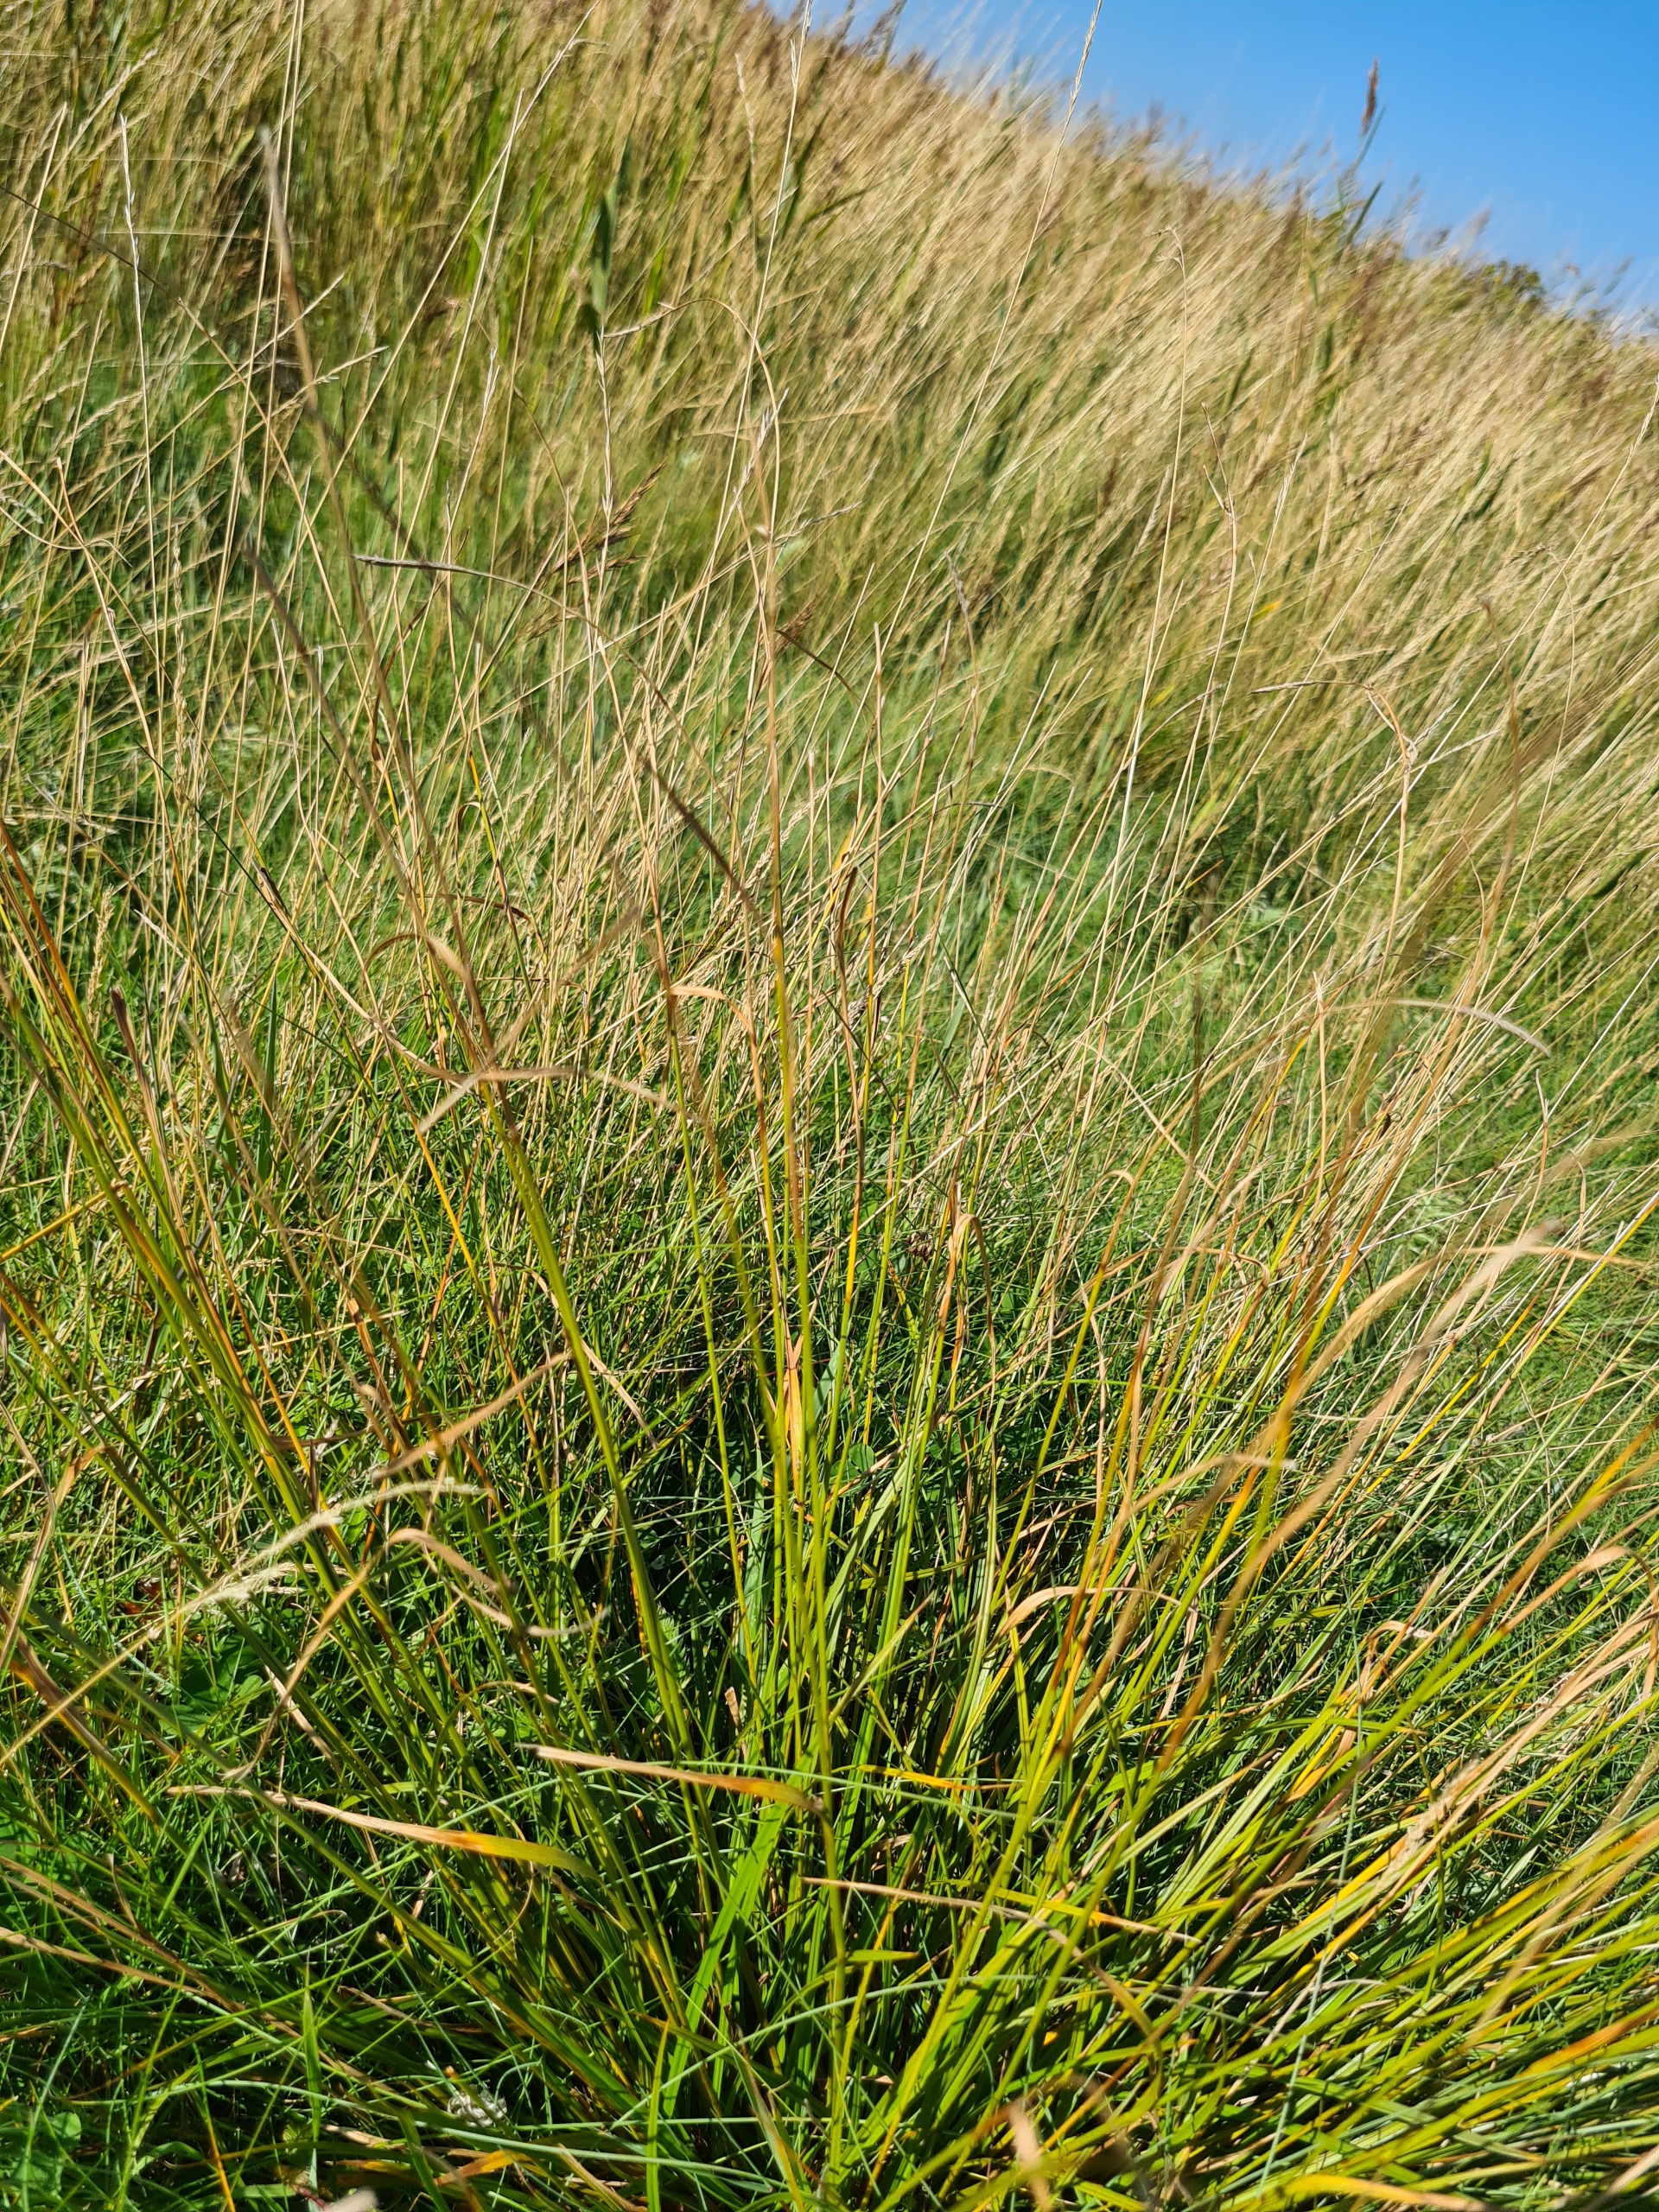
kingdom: Plantae
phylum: Tracheophyta
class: Liliopsida
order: Poales
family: Cyperaceae
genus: Carex
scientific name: Carex distans
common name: Fjernakset star
